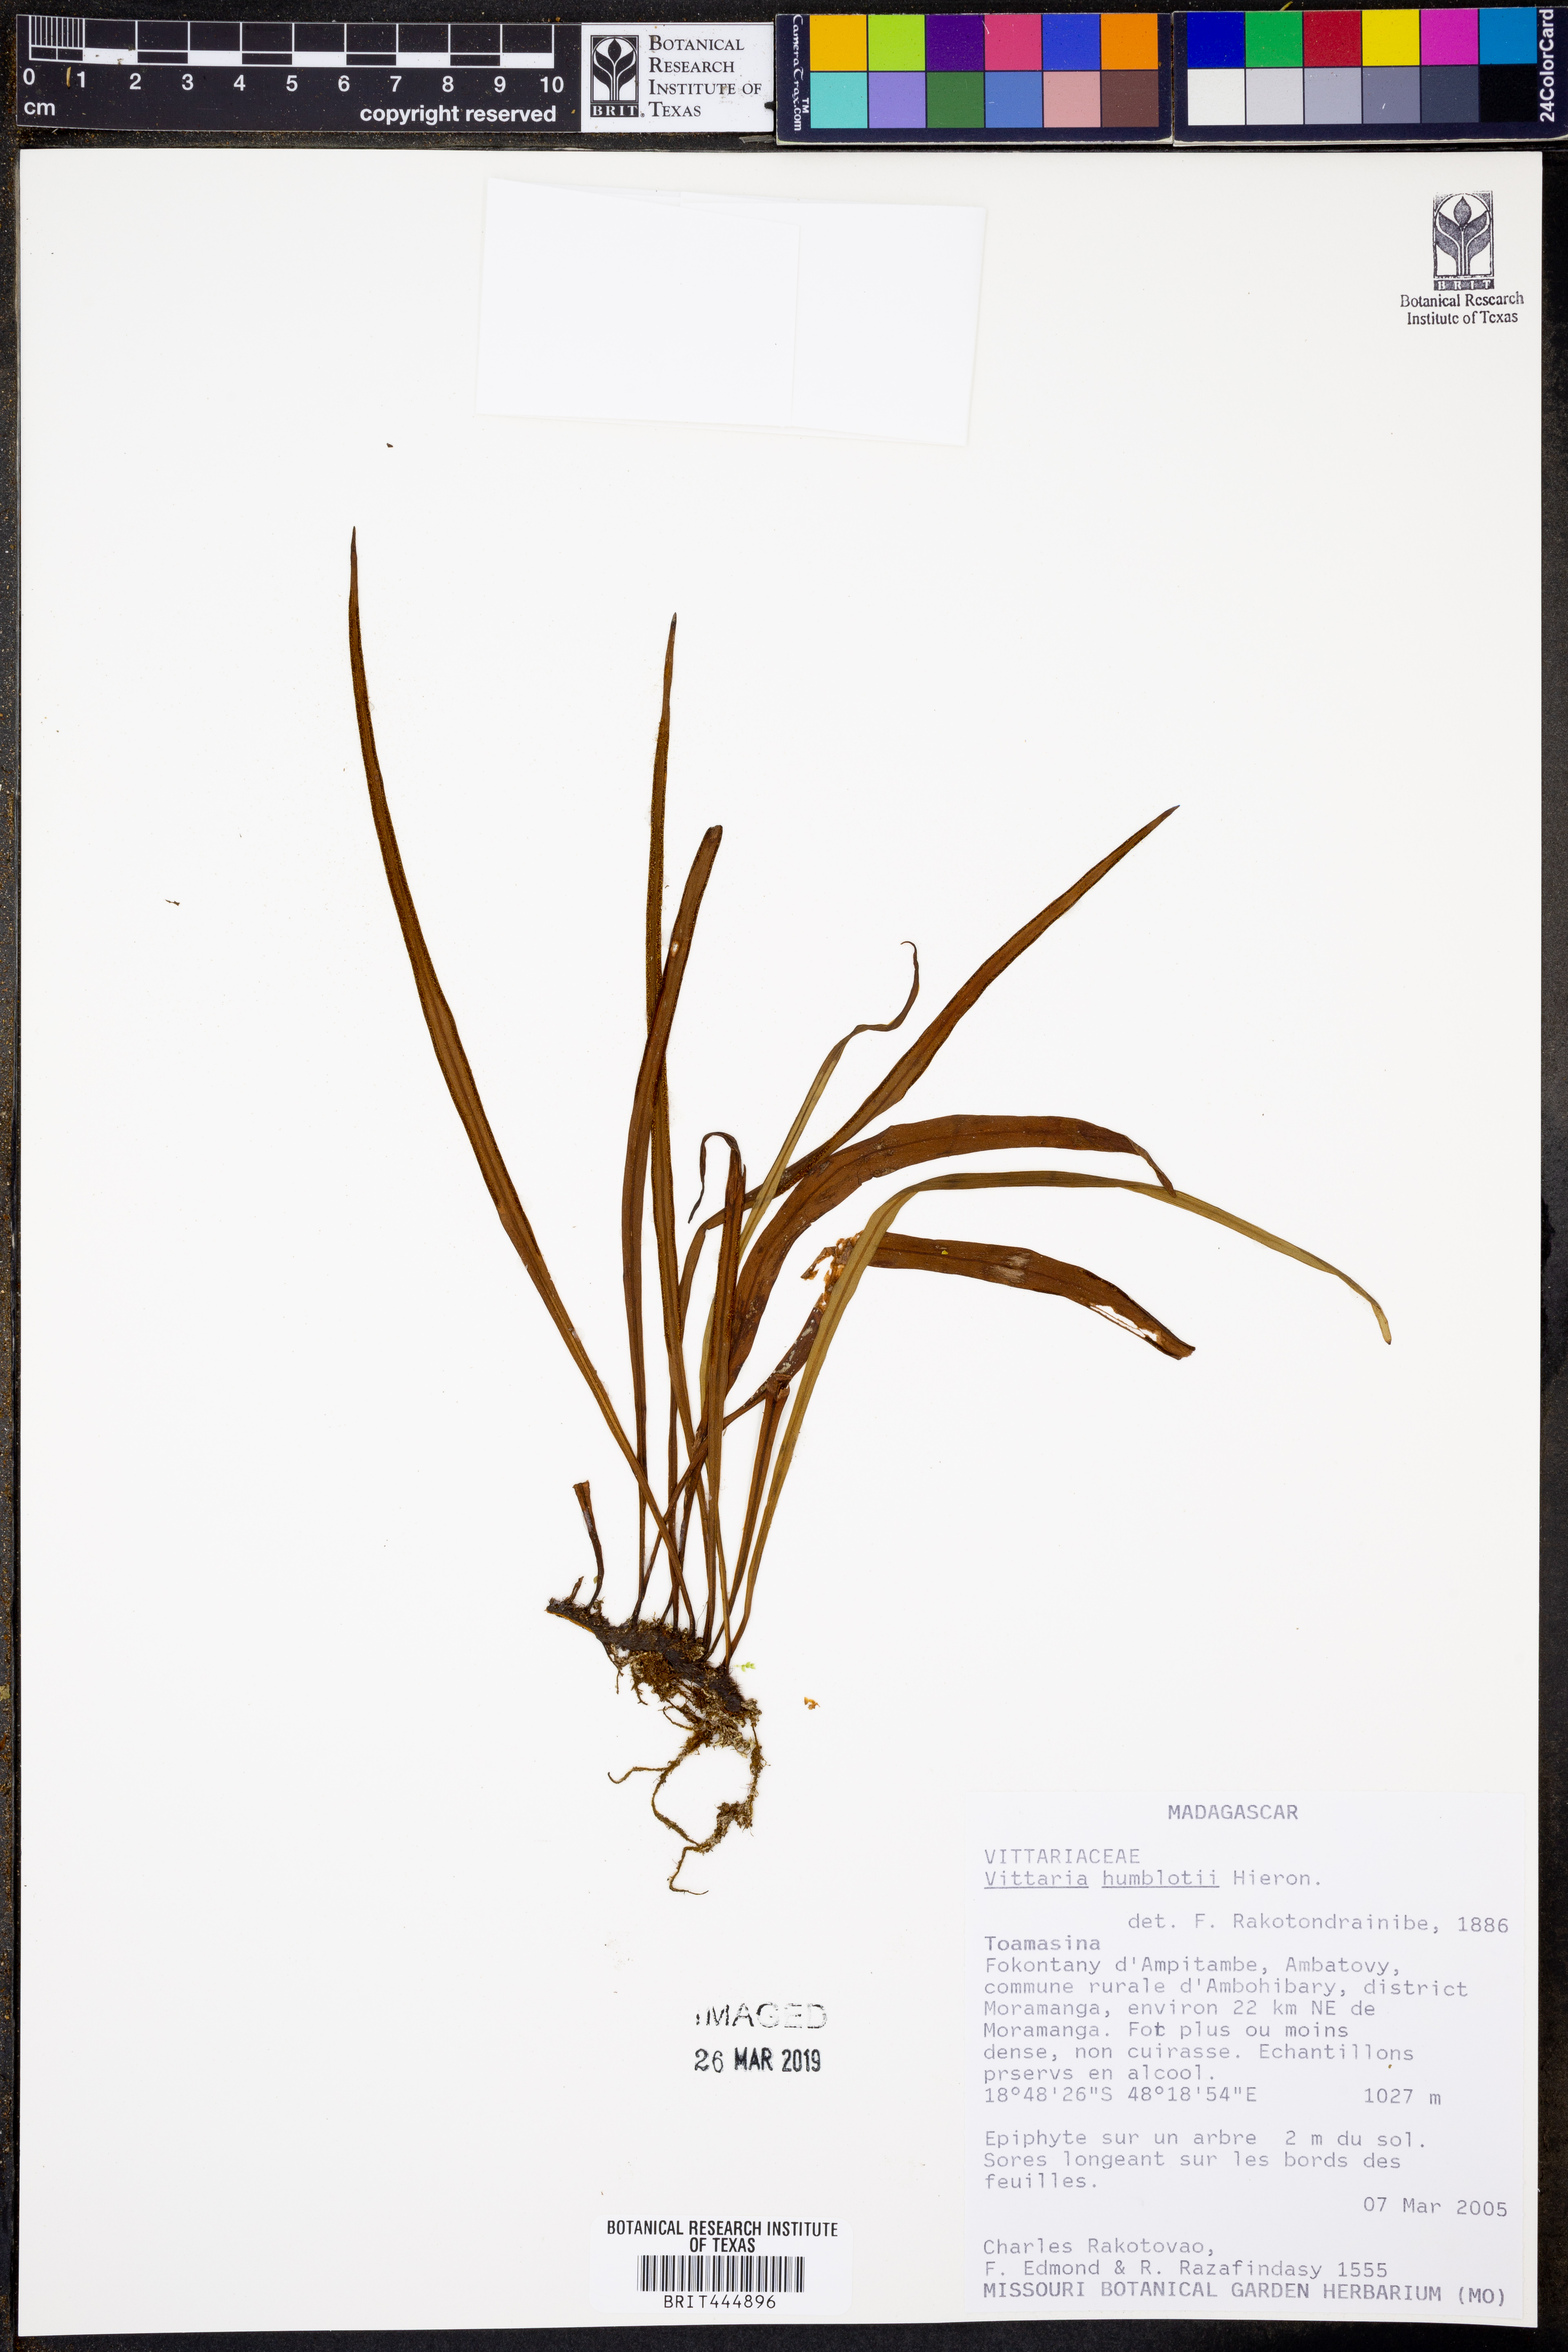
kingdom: Plantae
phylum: Tracheophyta
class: Polypodiopsida
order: Polypodiales
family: Pteridaceae
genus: Haplopteris
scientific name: Haplopteris humblotii
